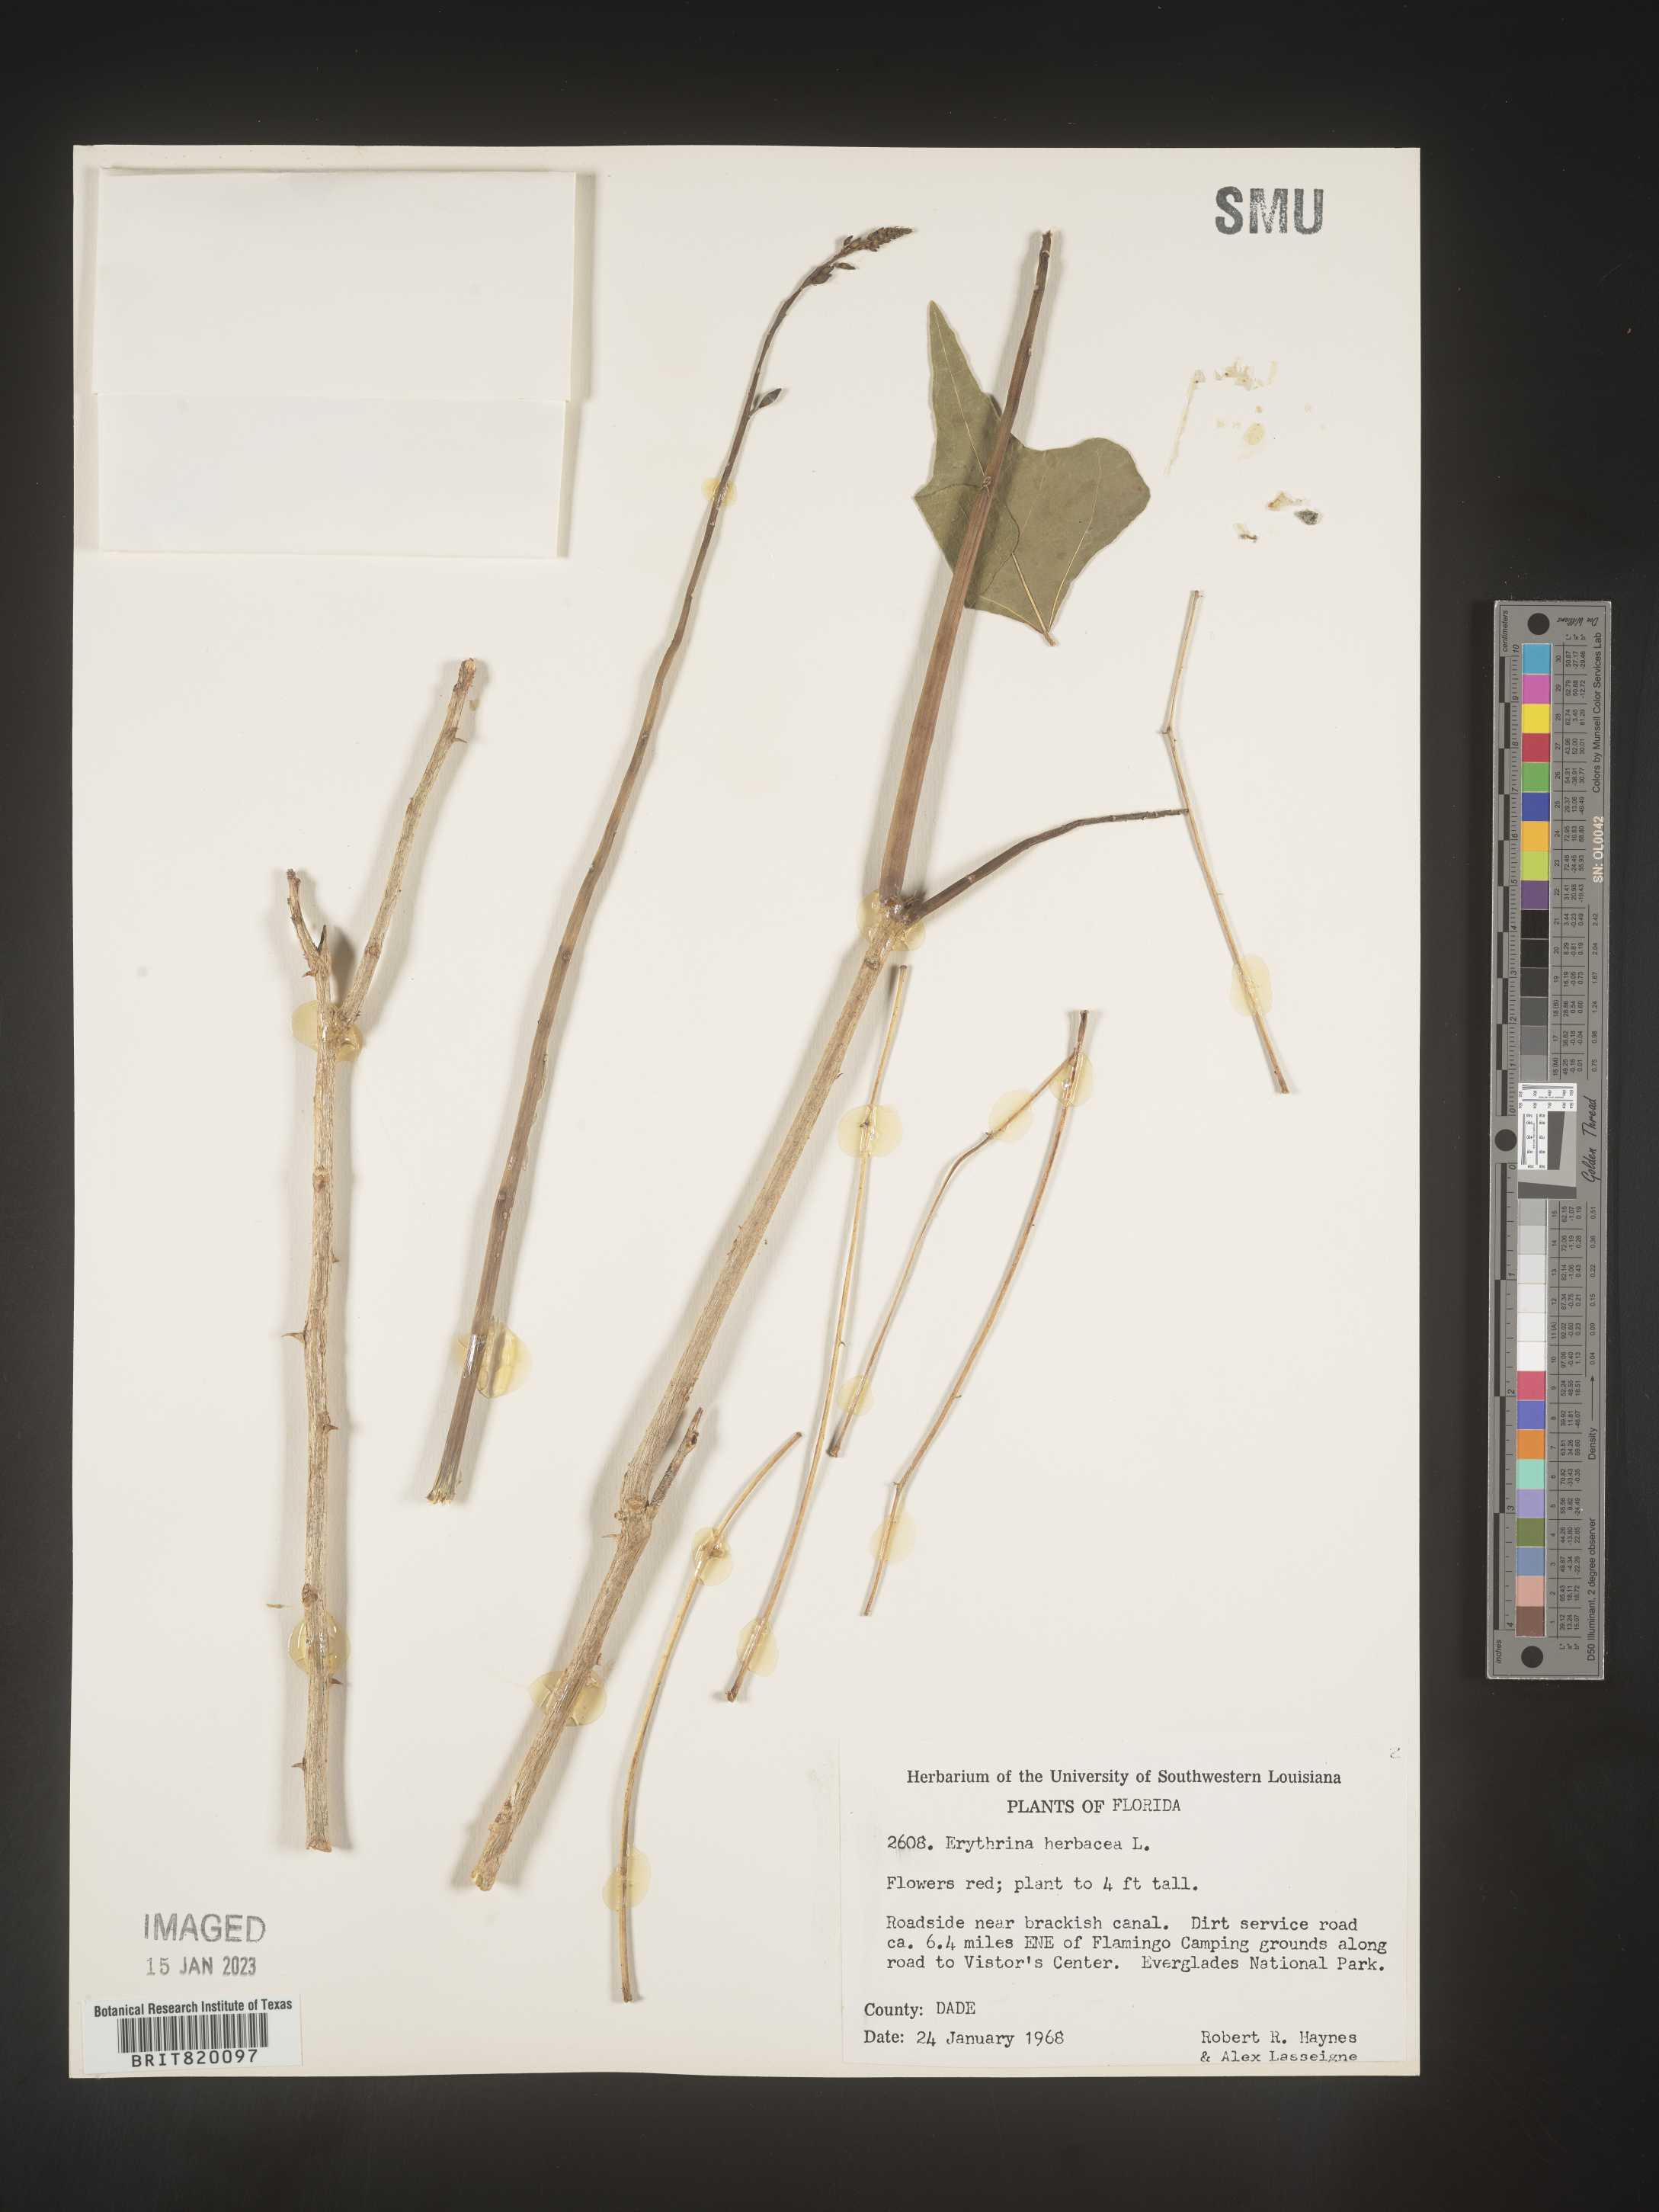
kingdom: Plantae
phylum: Tracheophyta
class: Magnoliopsida
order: Fabales
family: Fabaceae
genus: Erythrina
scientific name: Erythrina herbacea
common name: Coral-bean
